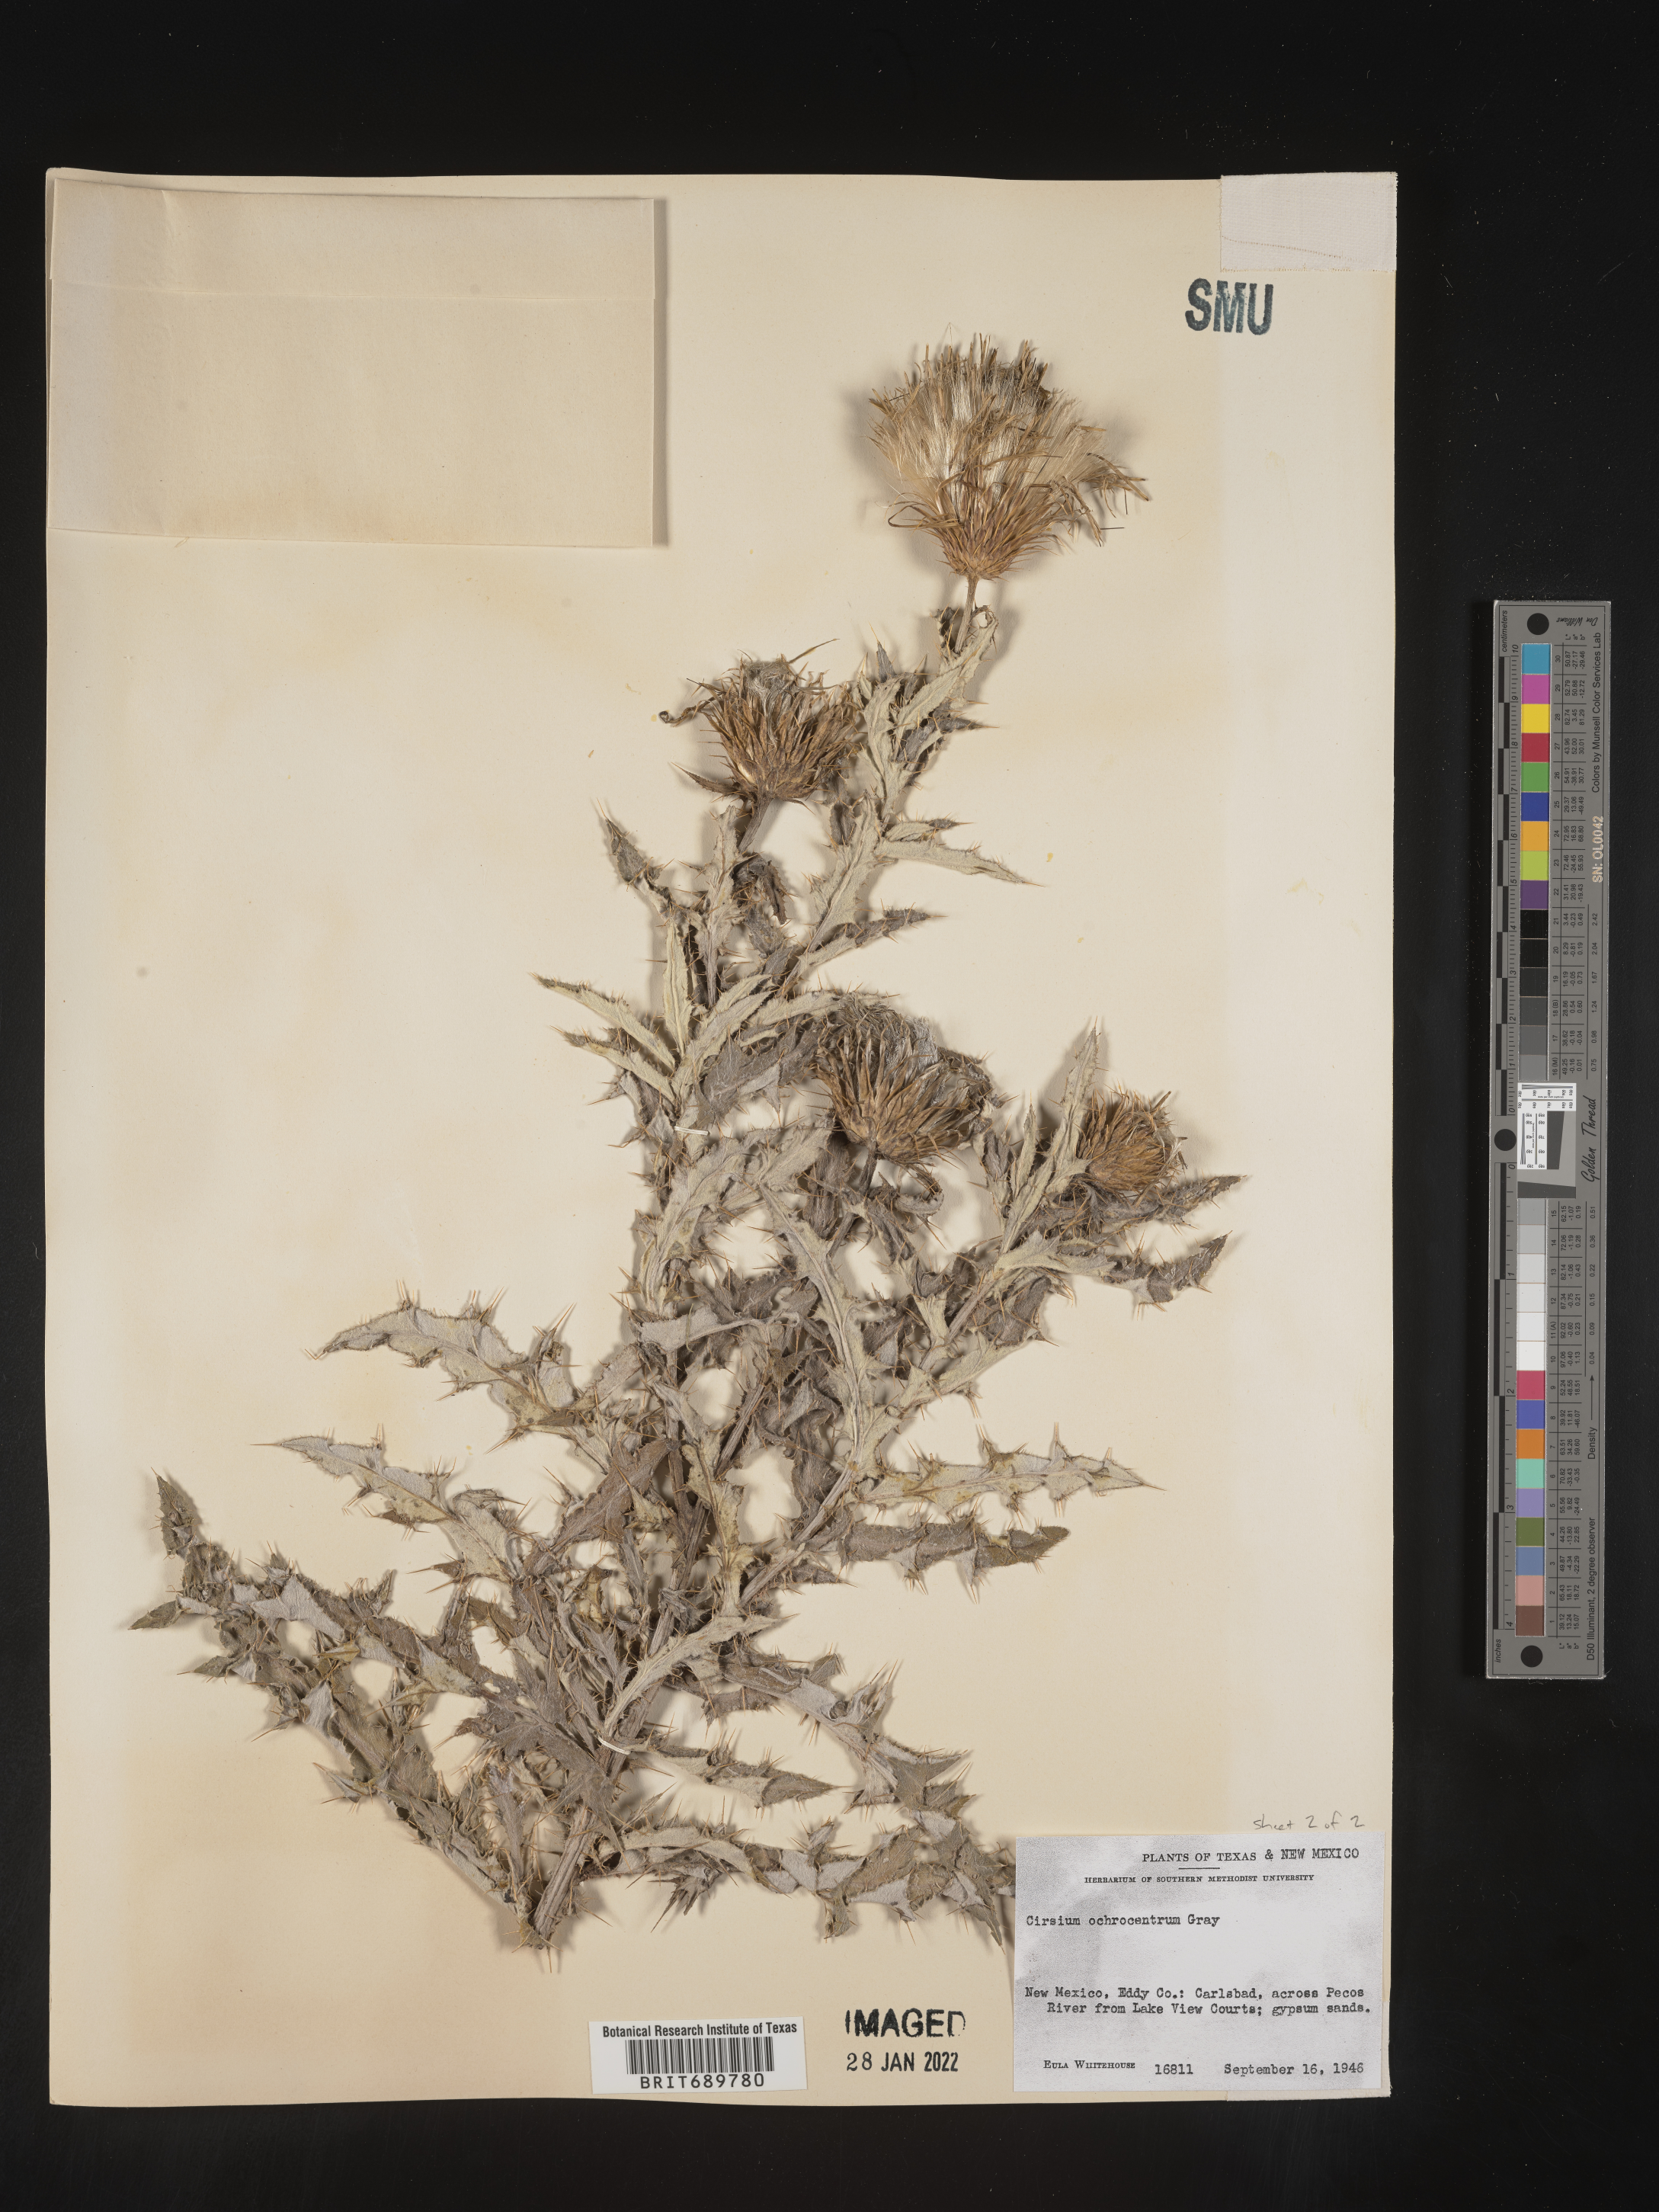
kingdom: Plantae
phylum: Tracheophyta
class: Magnoliopsida
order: Asterales
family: Asteraceae
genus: Cirsium
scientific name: Cirsium ochrocentrum
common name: Yellow-spine thistle
